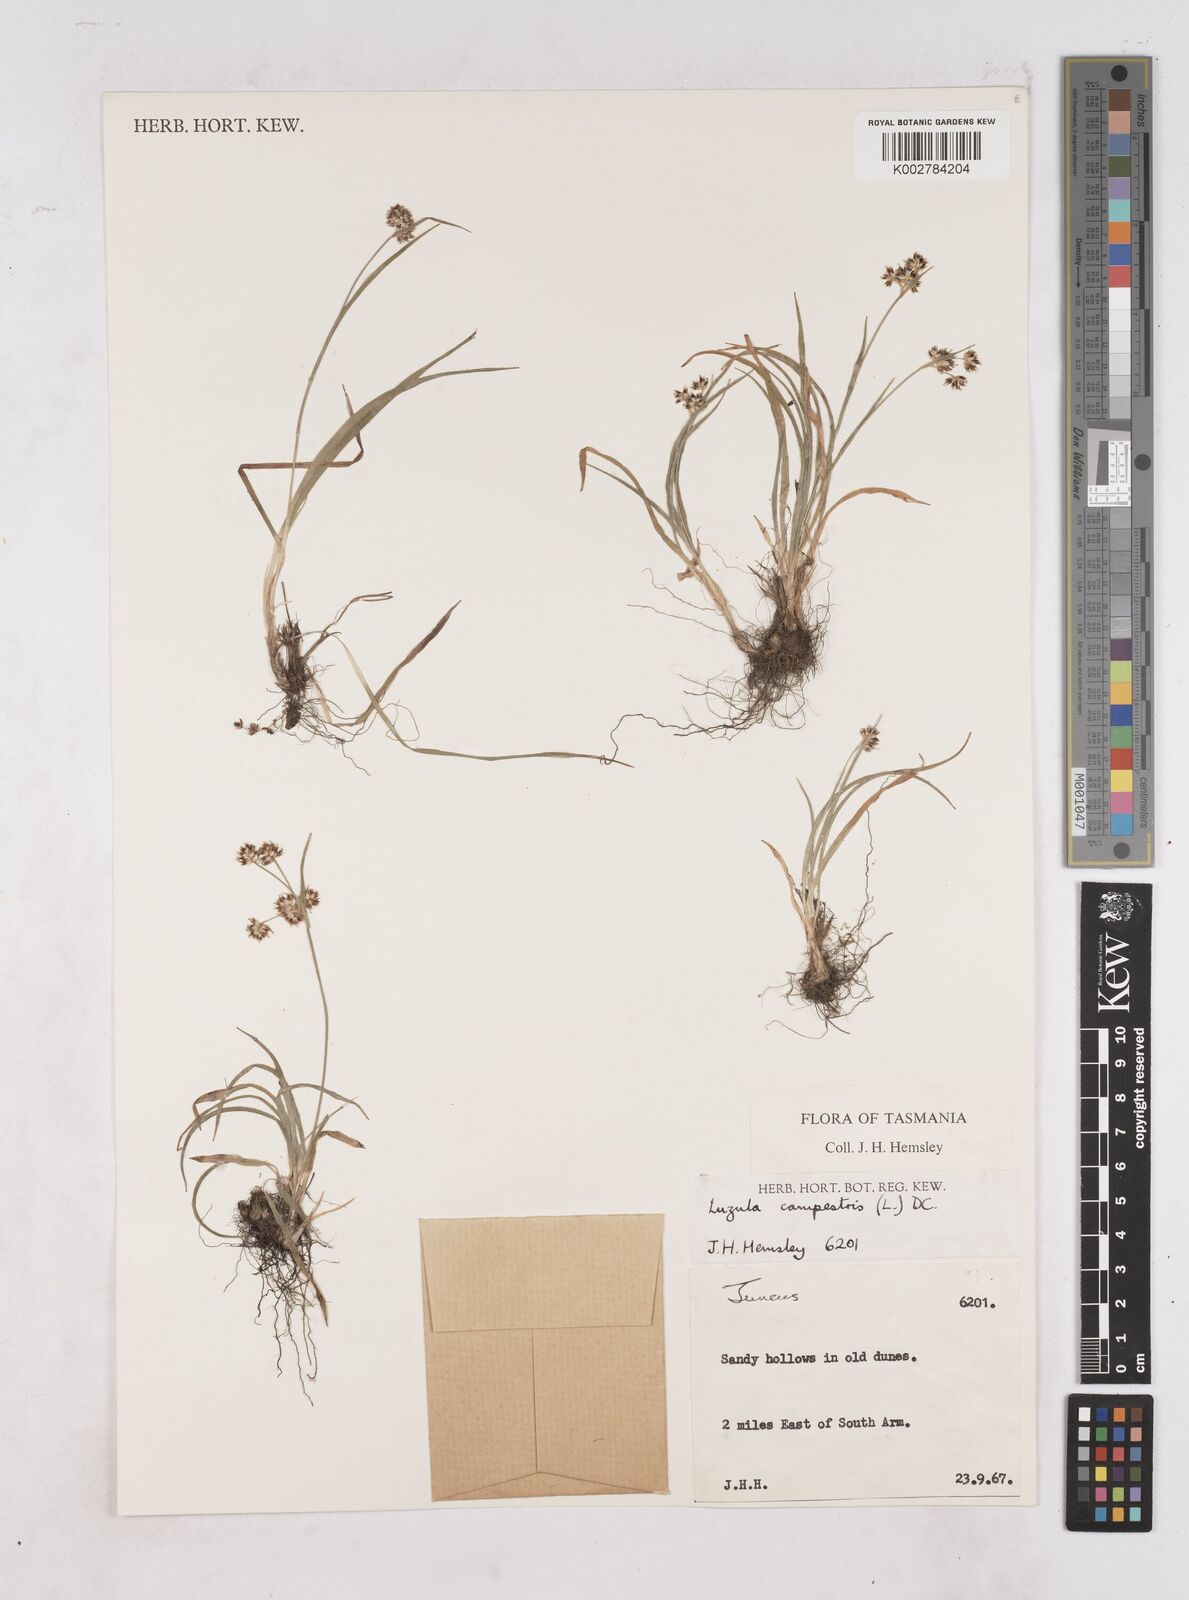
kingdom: Plantae
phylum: Tracheophyta
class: Liliopsida
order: Poales
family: Juncaceae
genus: Luzula
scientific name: Luzula campestris
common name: Field wood-rush
